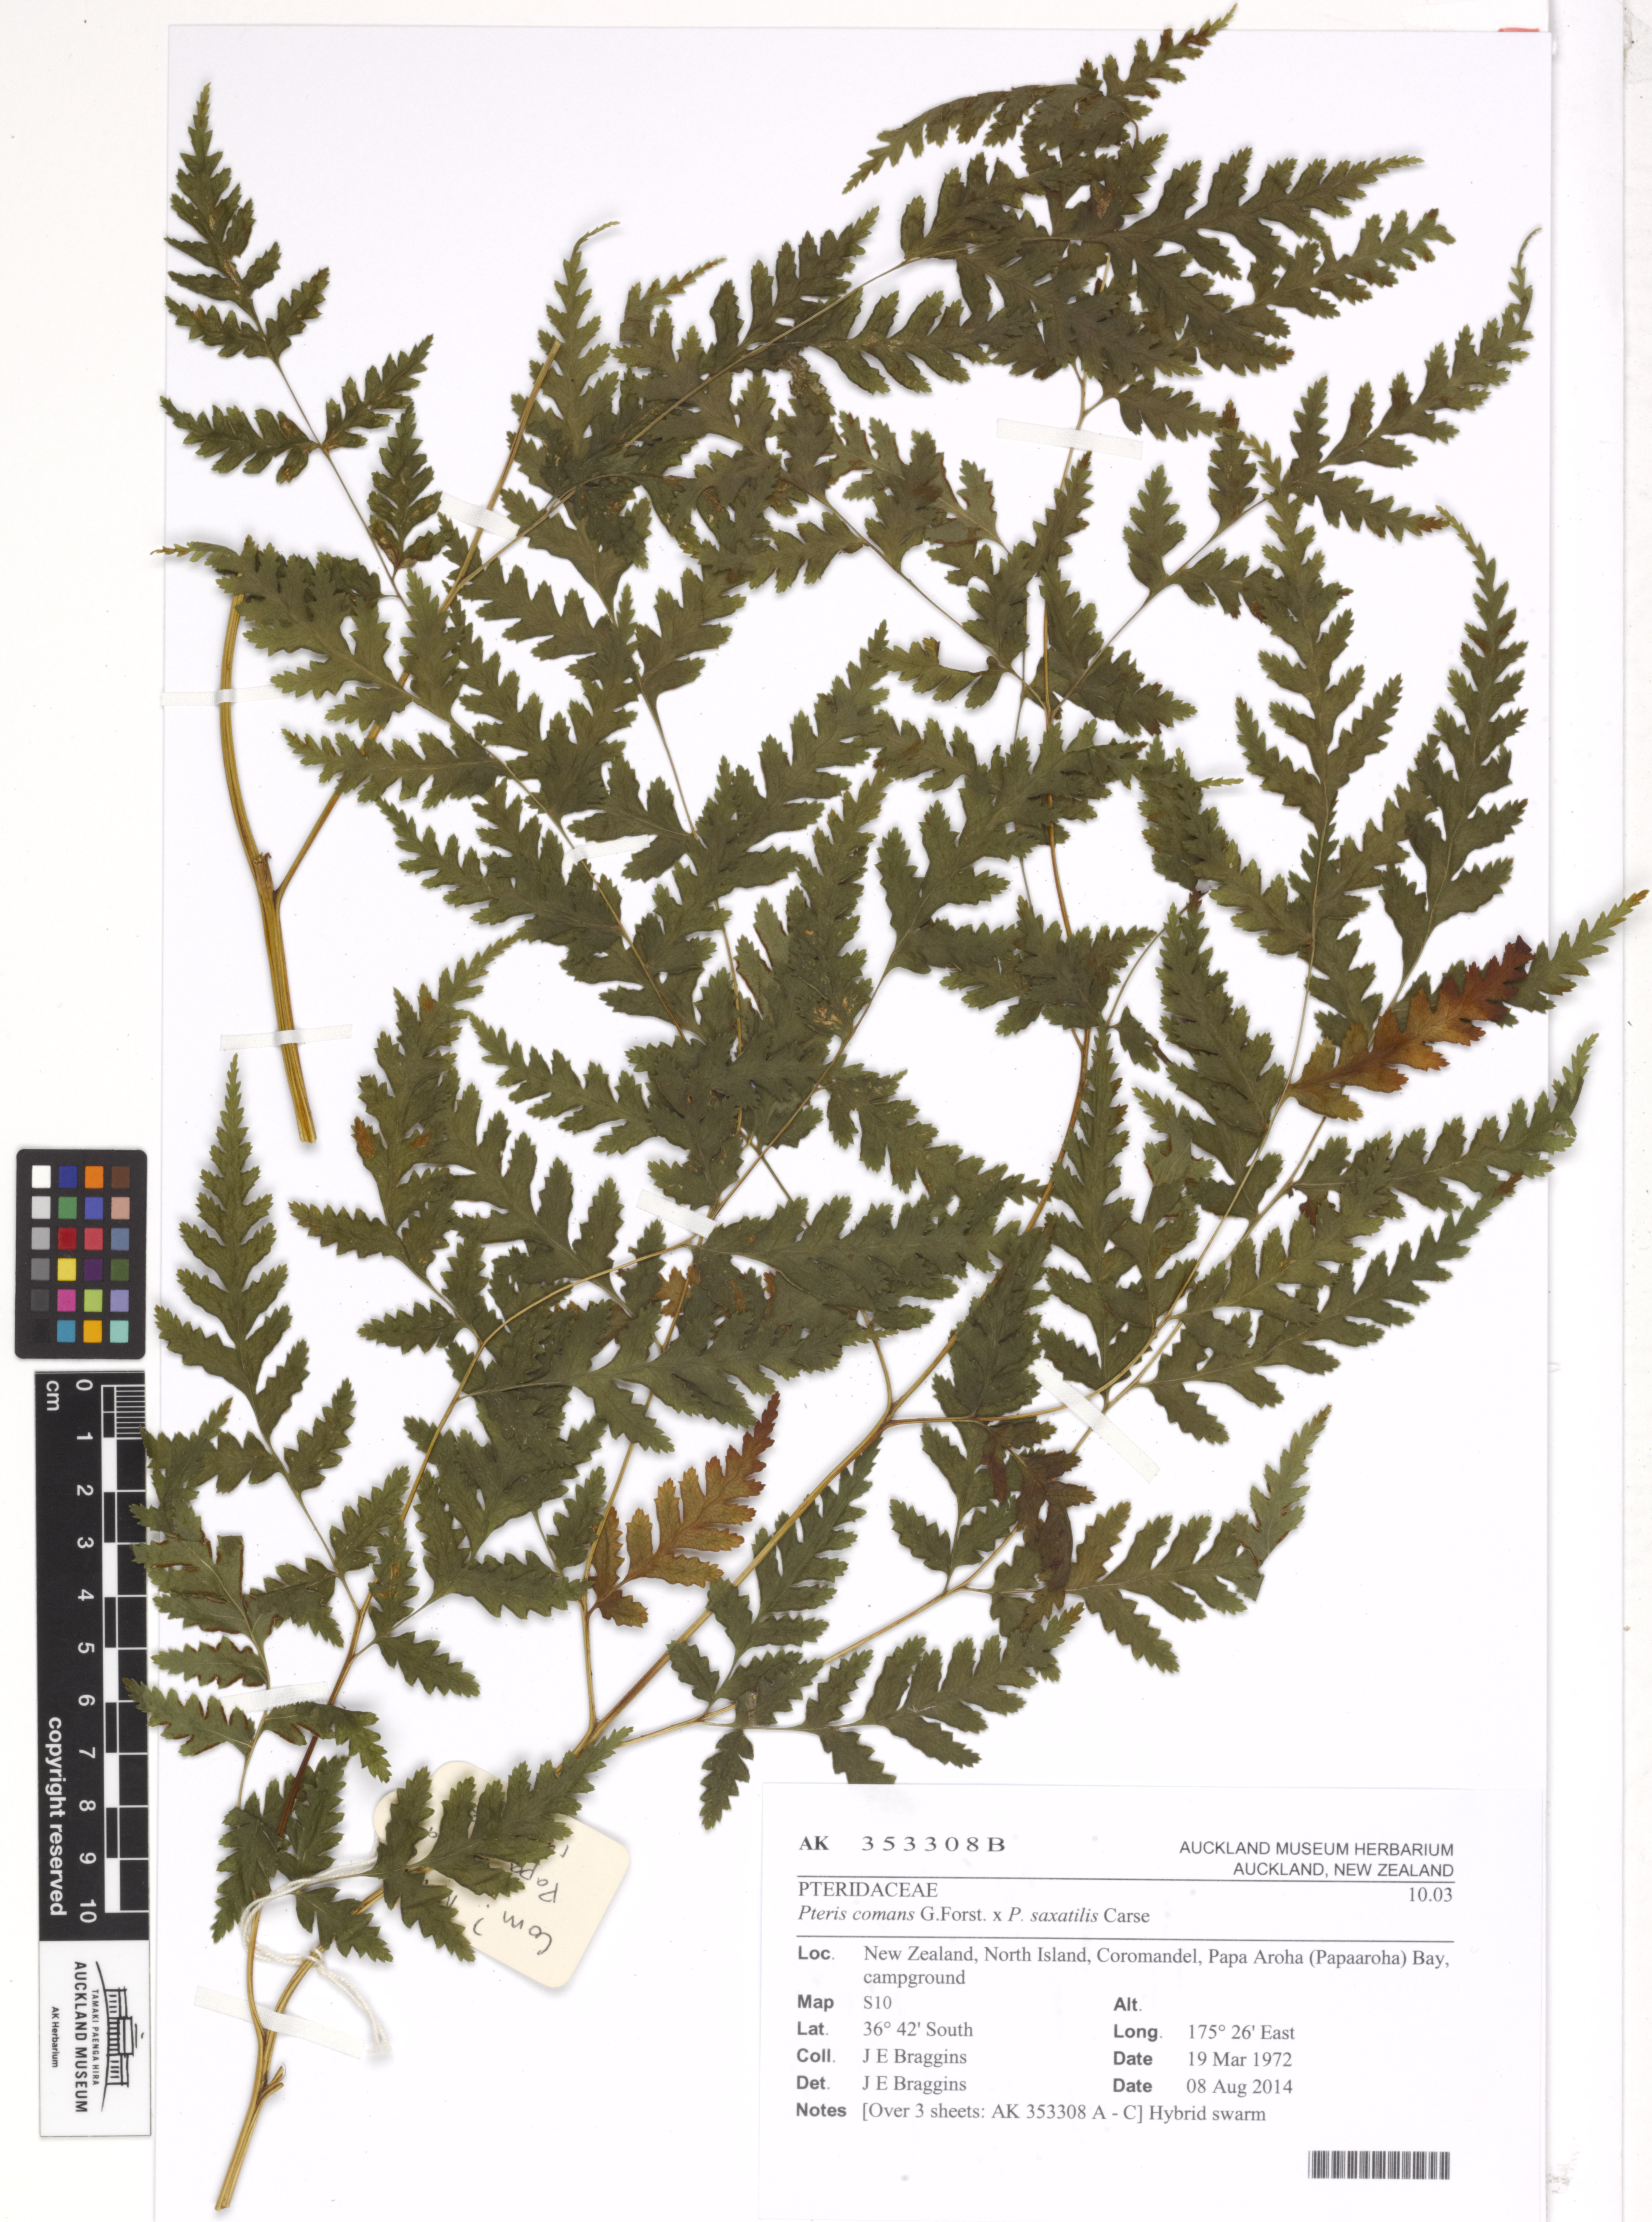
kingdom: Plantae
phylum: Tracheophyta
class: Polypodiopsida
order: Polypodiales
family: Pteridaceae
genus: Pteris
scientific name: Pteris
